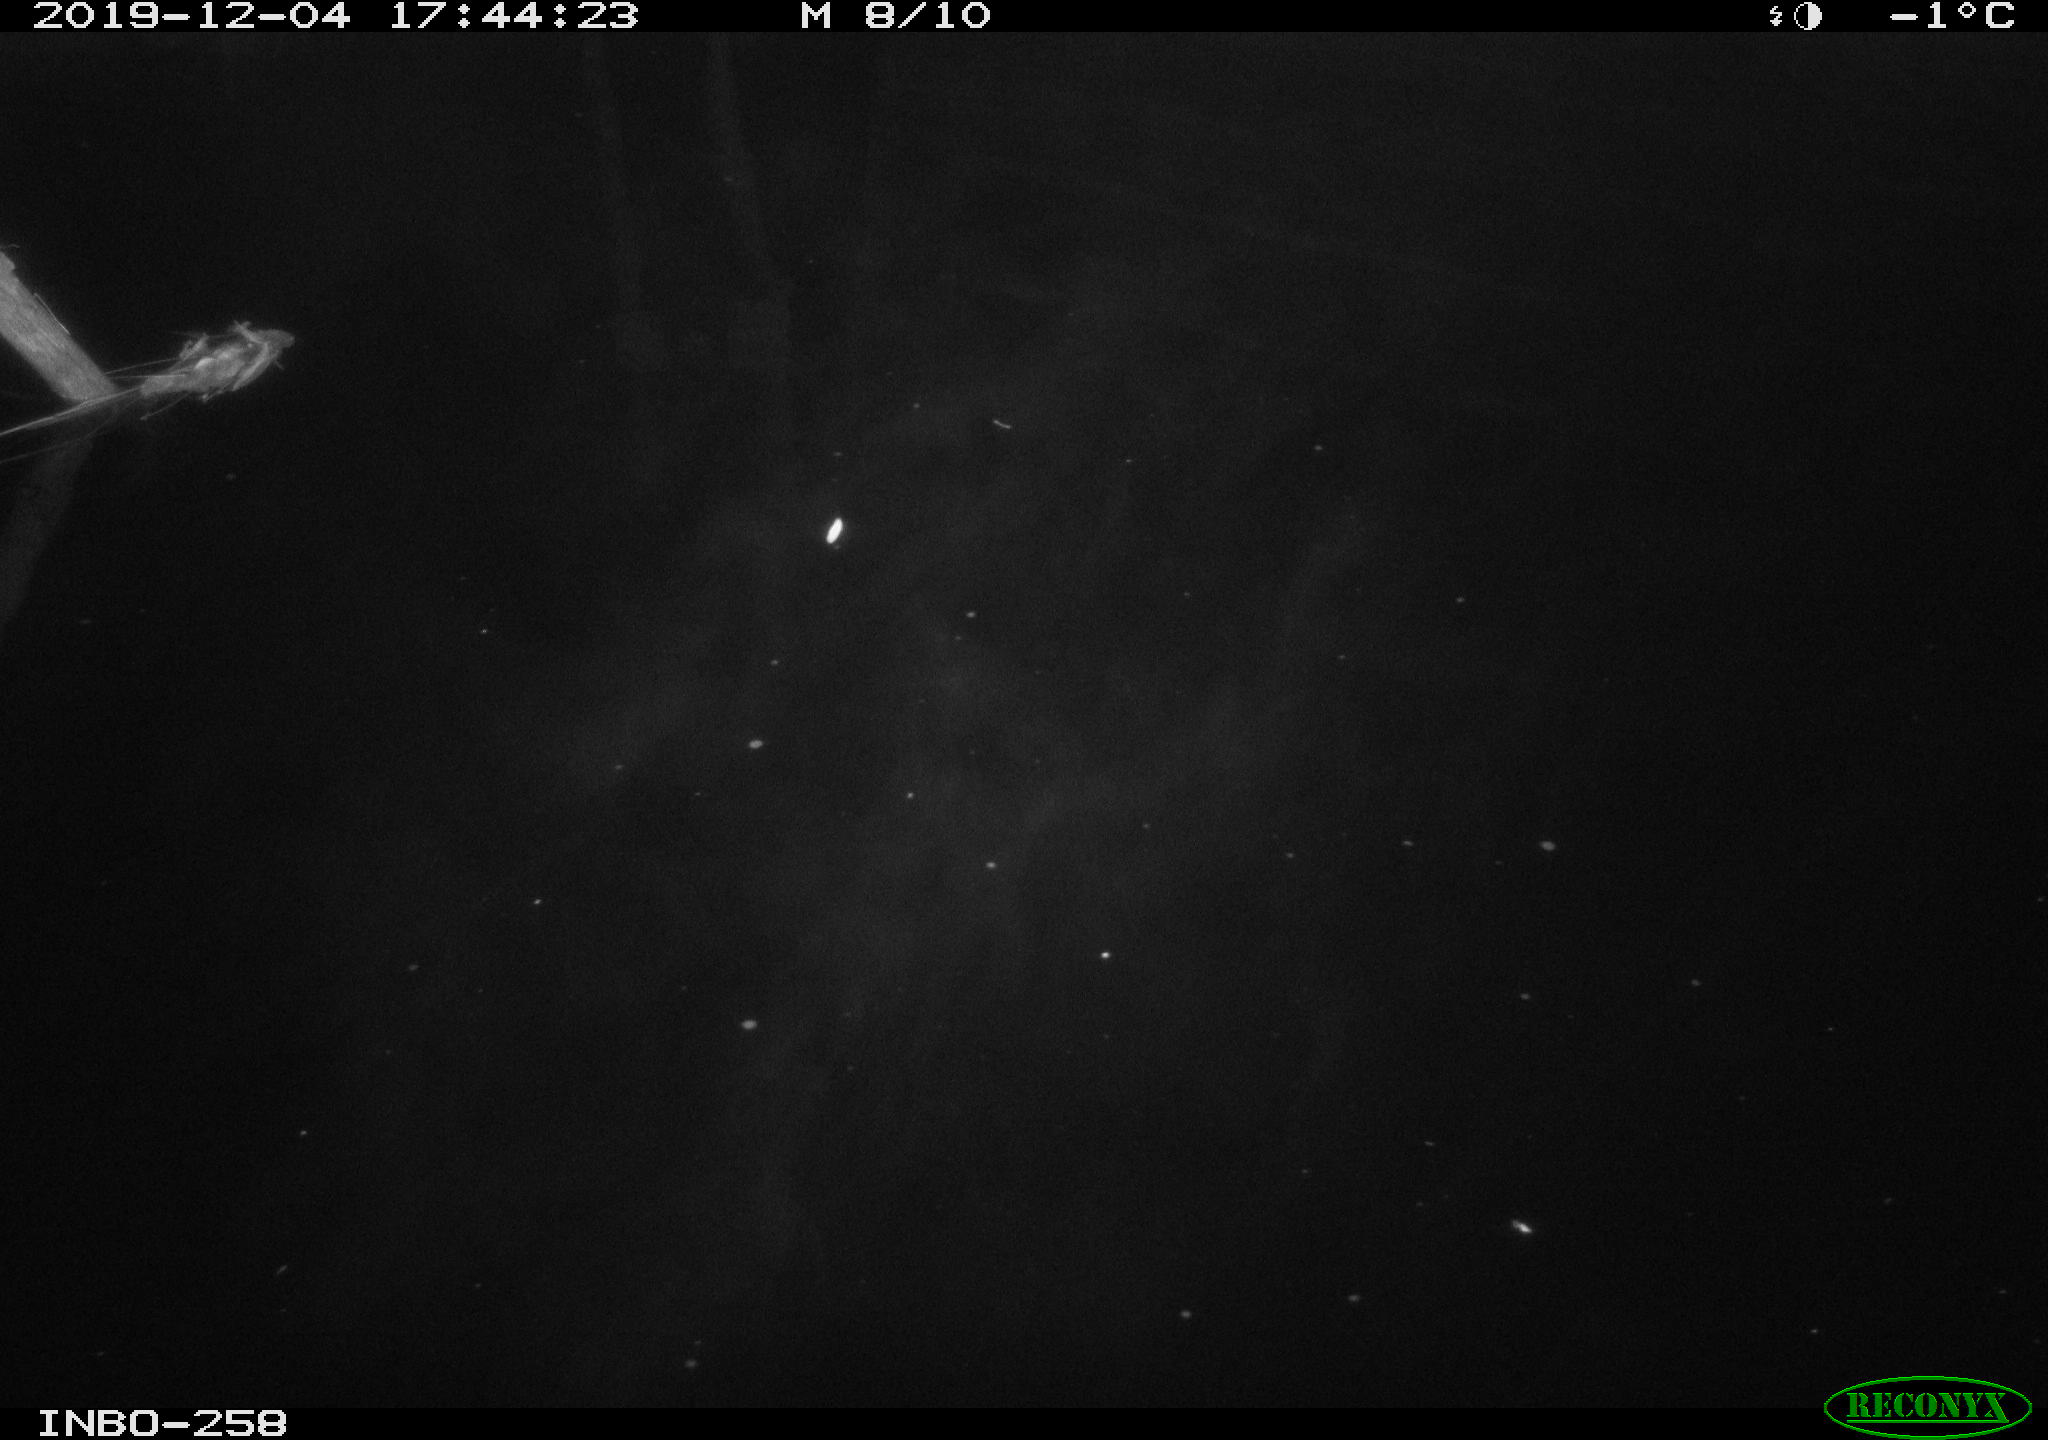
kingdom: Animalia
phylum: Chordata
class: Aves
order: Anseriformes
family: Anatidae
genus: Anas
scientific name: Anas platyrhynchos
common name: Mallard
